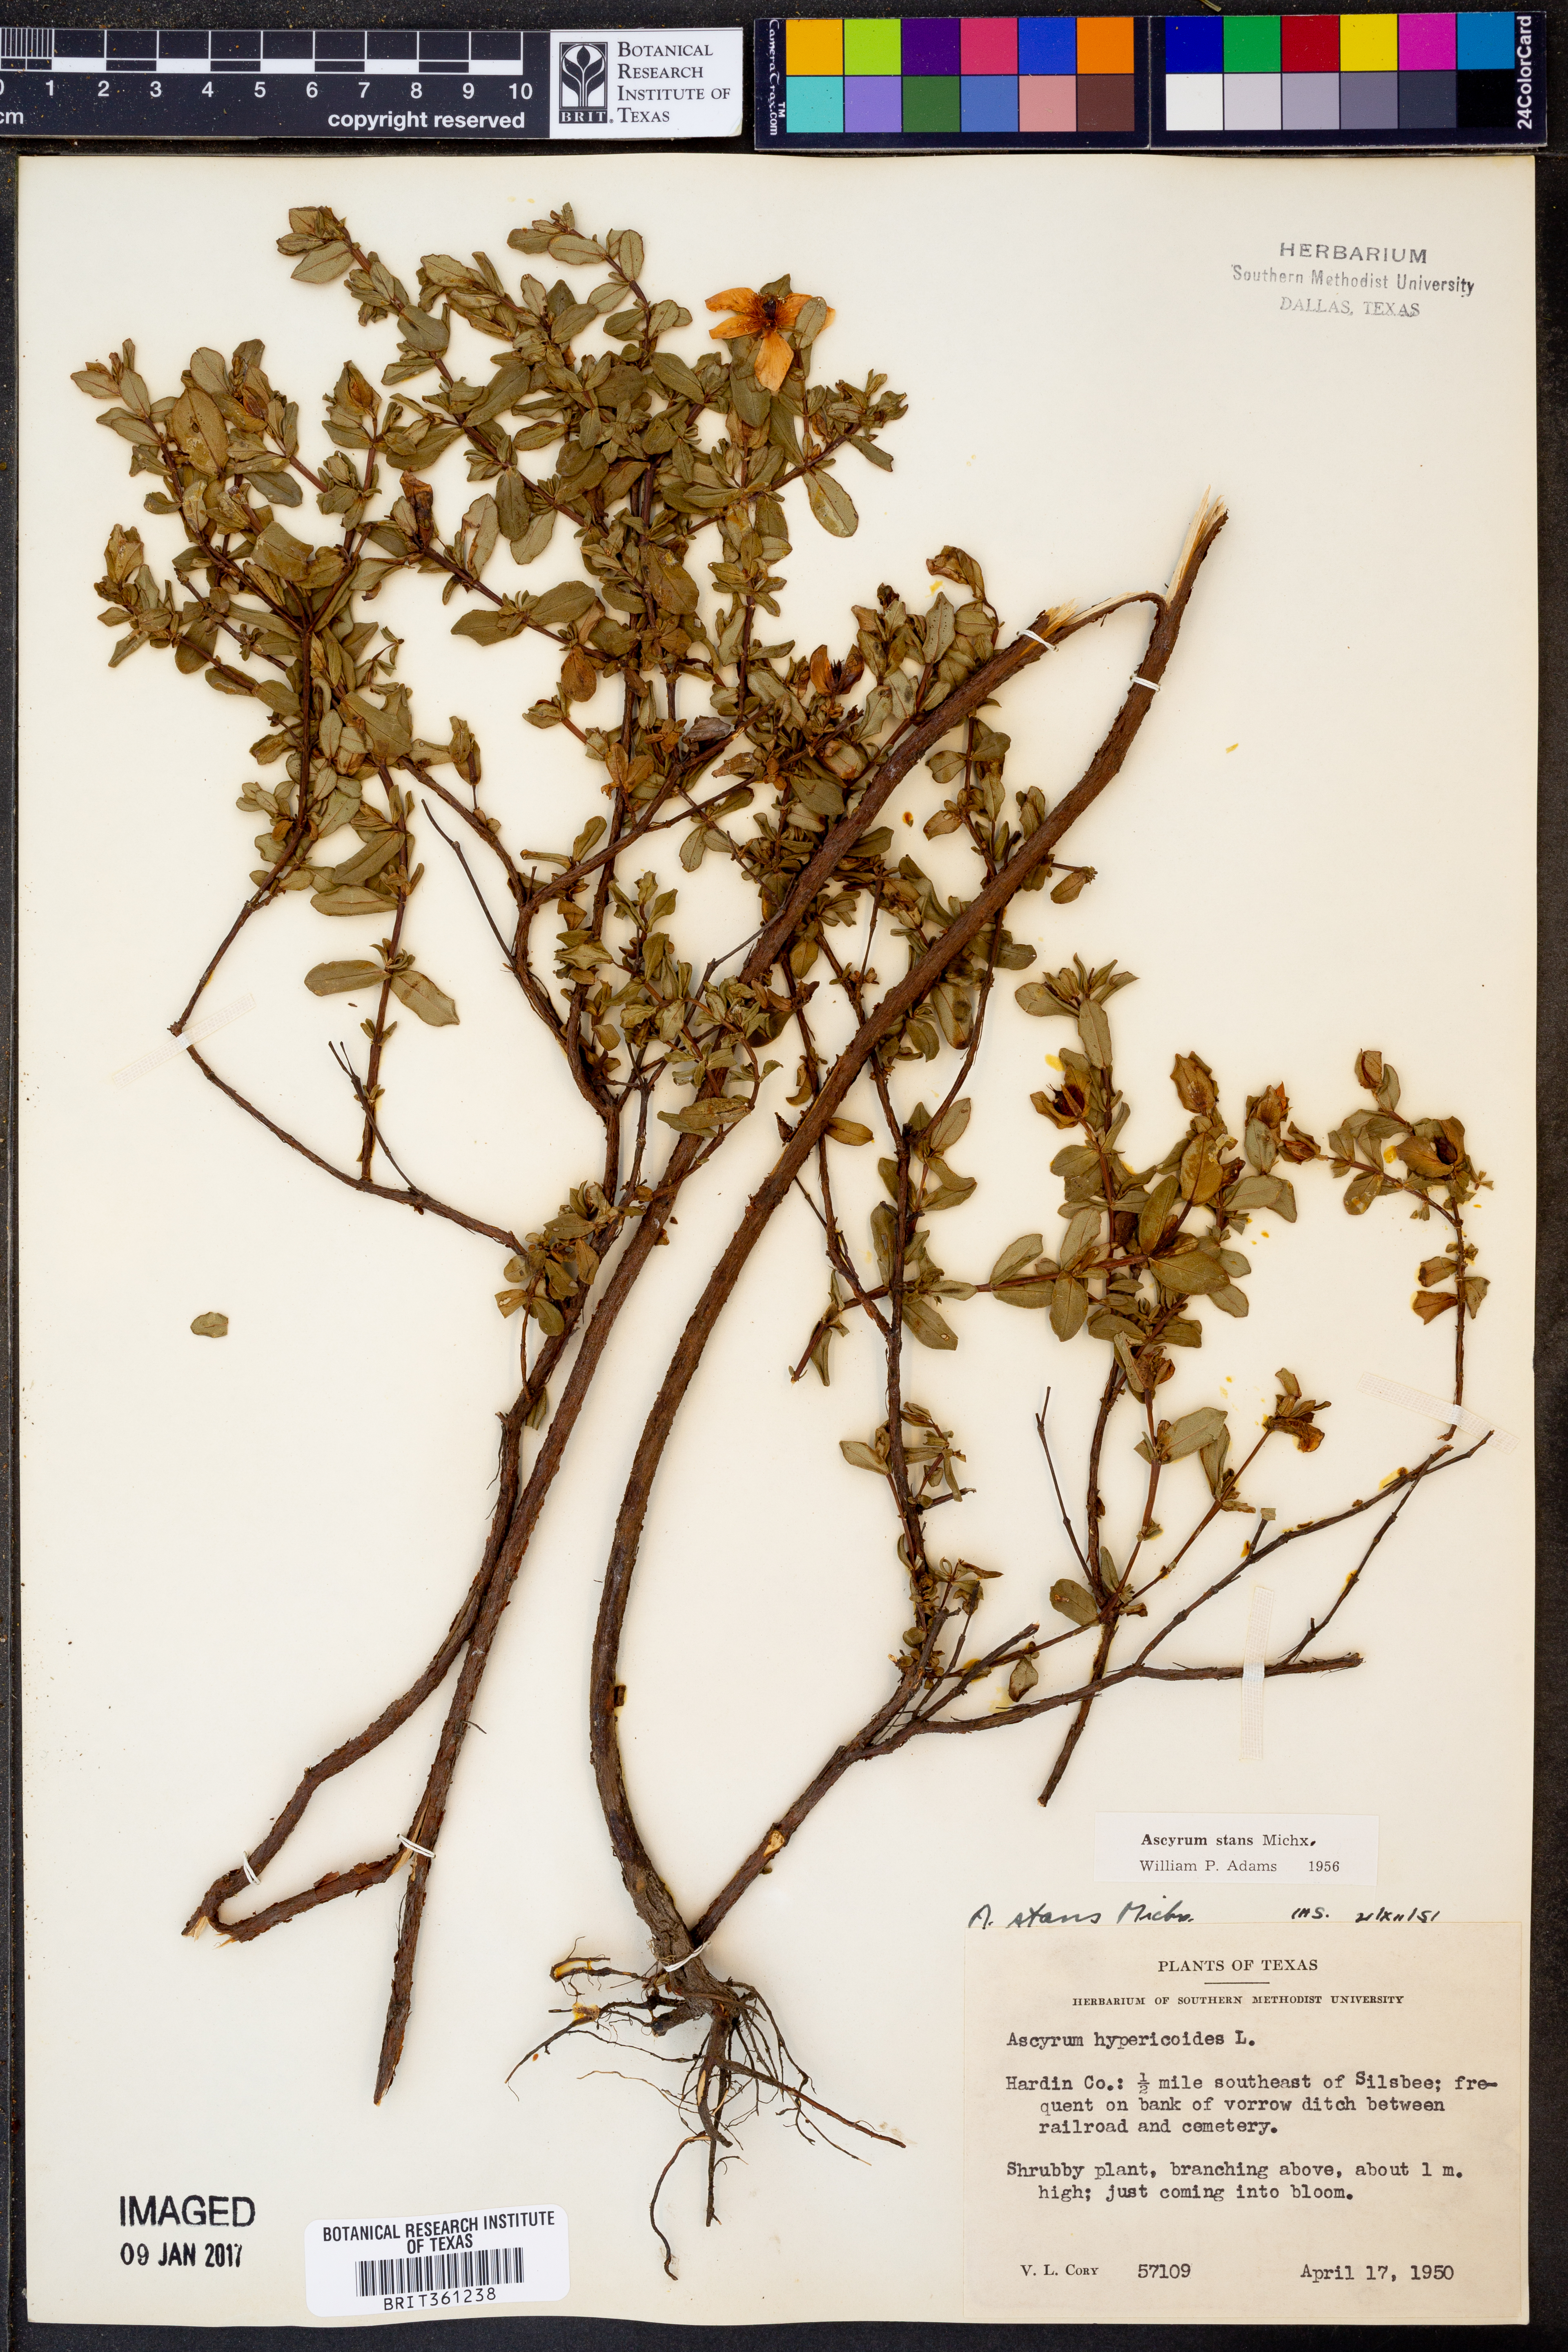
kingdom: Plantae
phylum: Tracheophyta
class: Magnoliopsida
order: Malpighiales
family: Hypericaceae
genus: Hypericum
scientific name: Hypericum crux-andreae
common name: St.-peter's-wort
